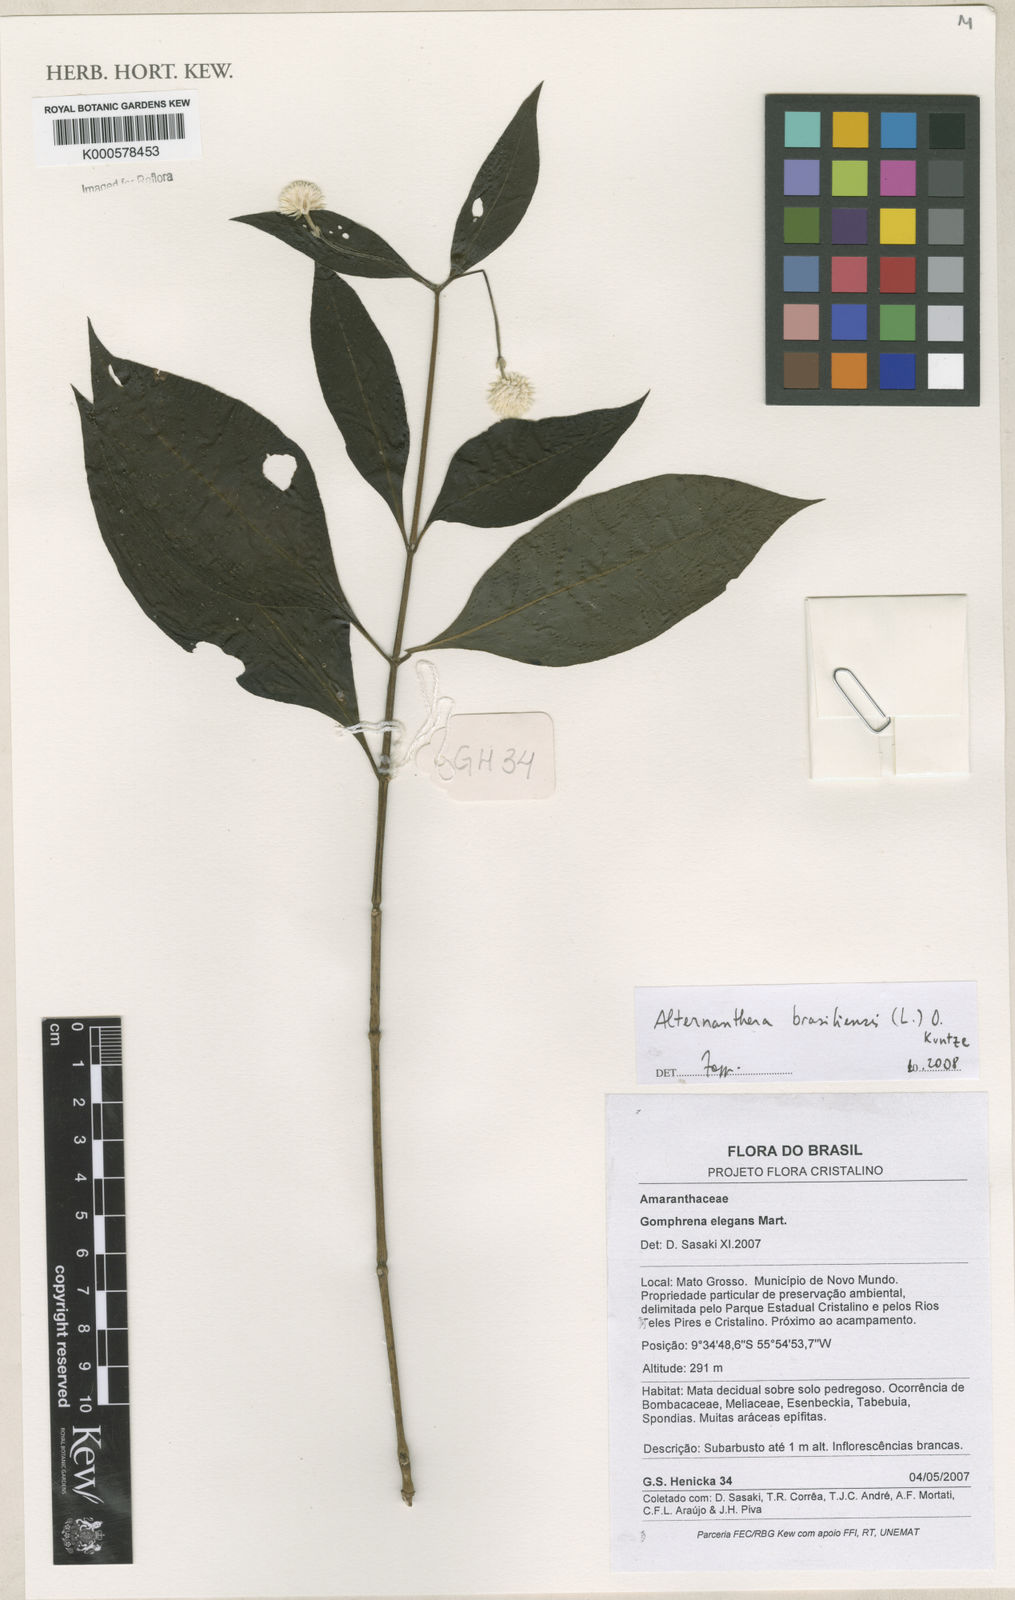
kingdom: Plantae
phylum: Tracheophyta
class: Magnoliopsida
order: Caryophyllales
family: Amaranthaceae
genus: Alternanthera
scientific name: Alternanthera brasiliana
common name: Brazilian joyweed
